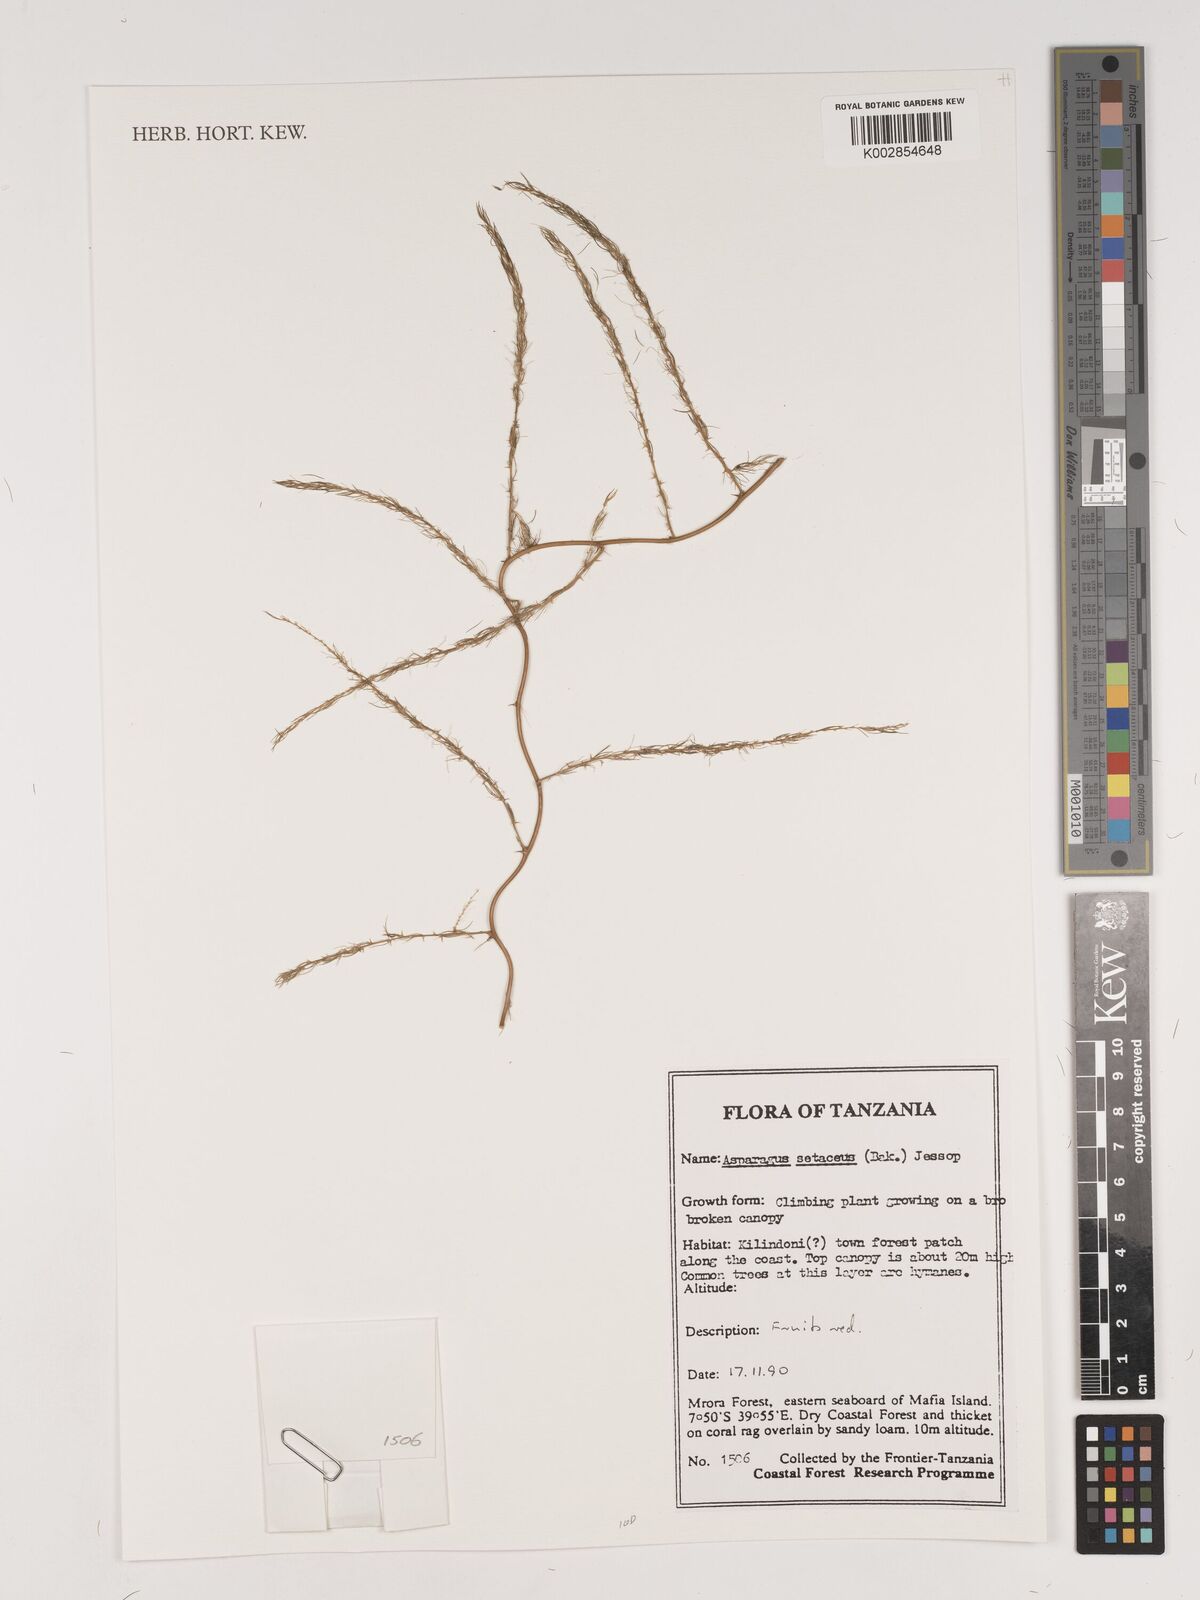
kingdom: Plantae
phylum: Tracheophyta
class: Liliopsida
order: Asparagales
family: Asparagaceae
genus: Asparagus
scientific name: Asparagus setaceus
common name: Common asparagus fern
